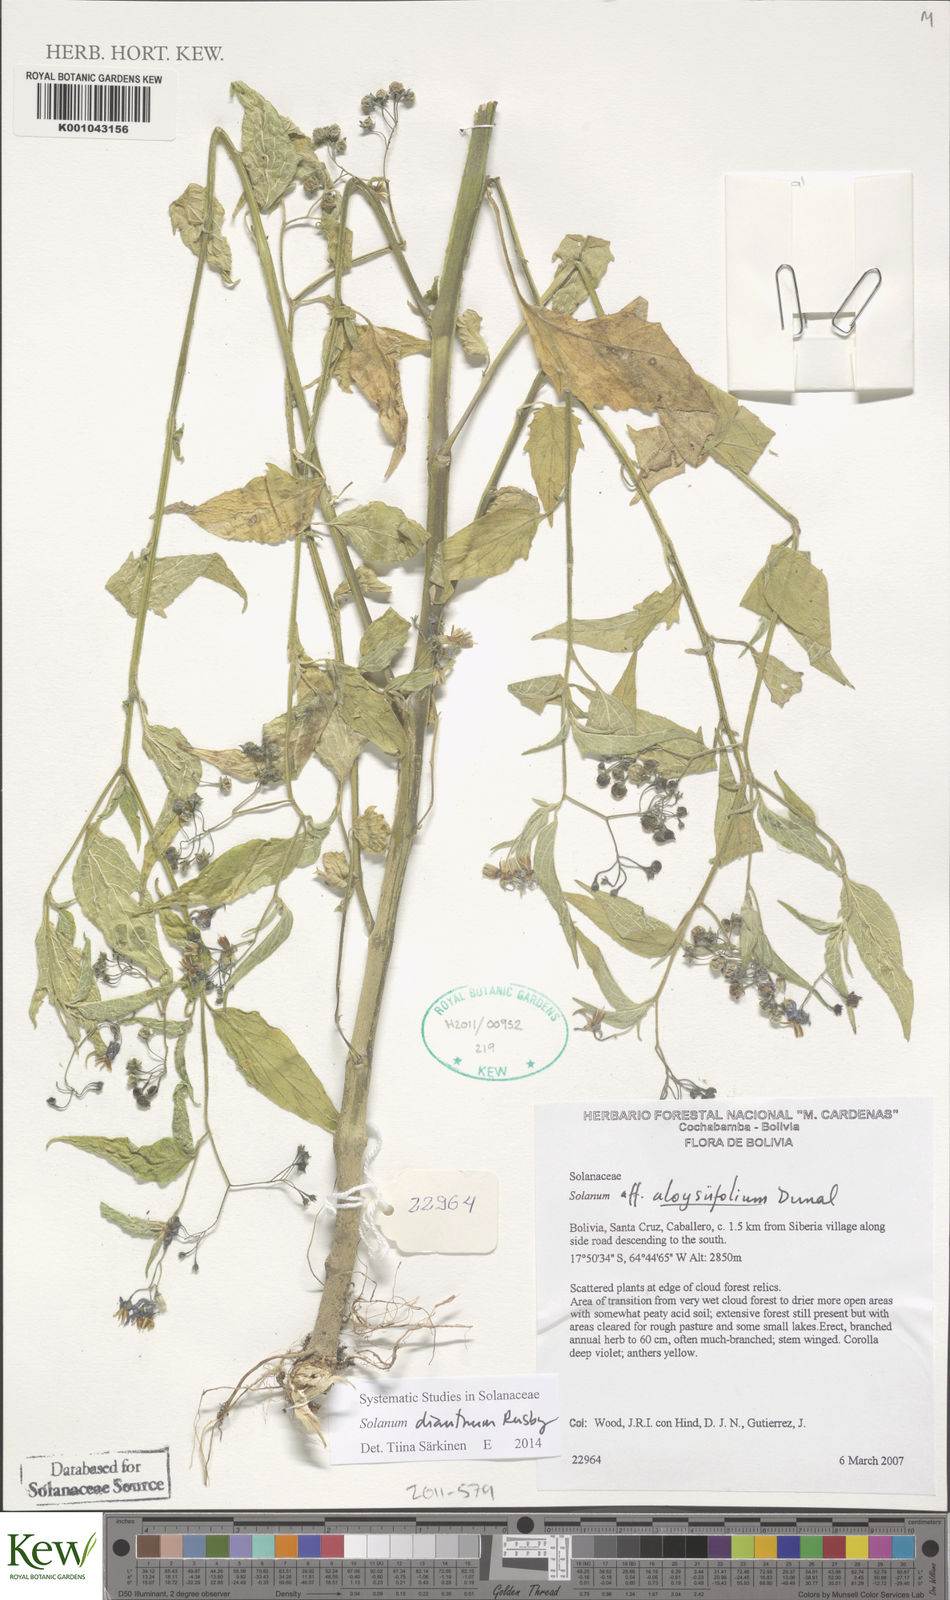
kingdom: Plantae
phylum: Tracheophyta
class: Magnoliopsida
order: Solanales
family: Solanaceae
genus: Solanum
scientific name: Solanum dianthum
